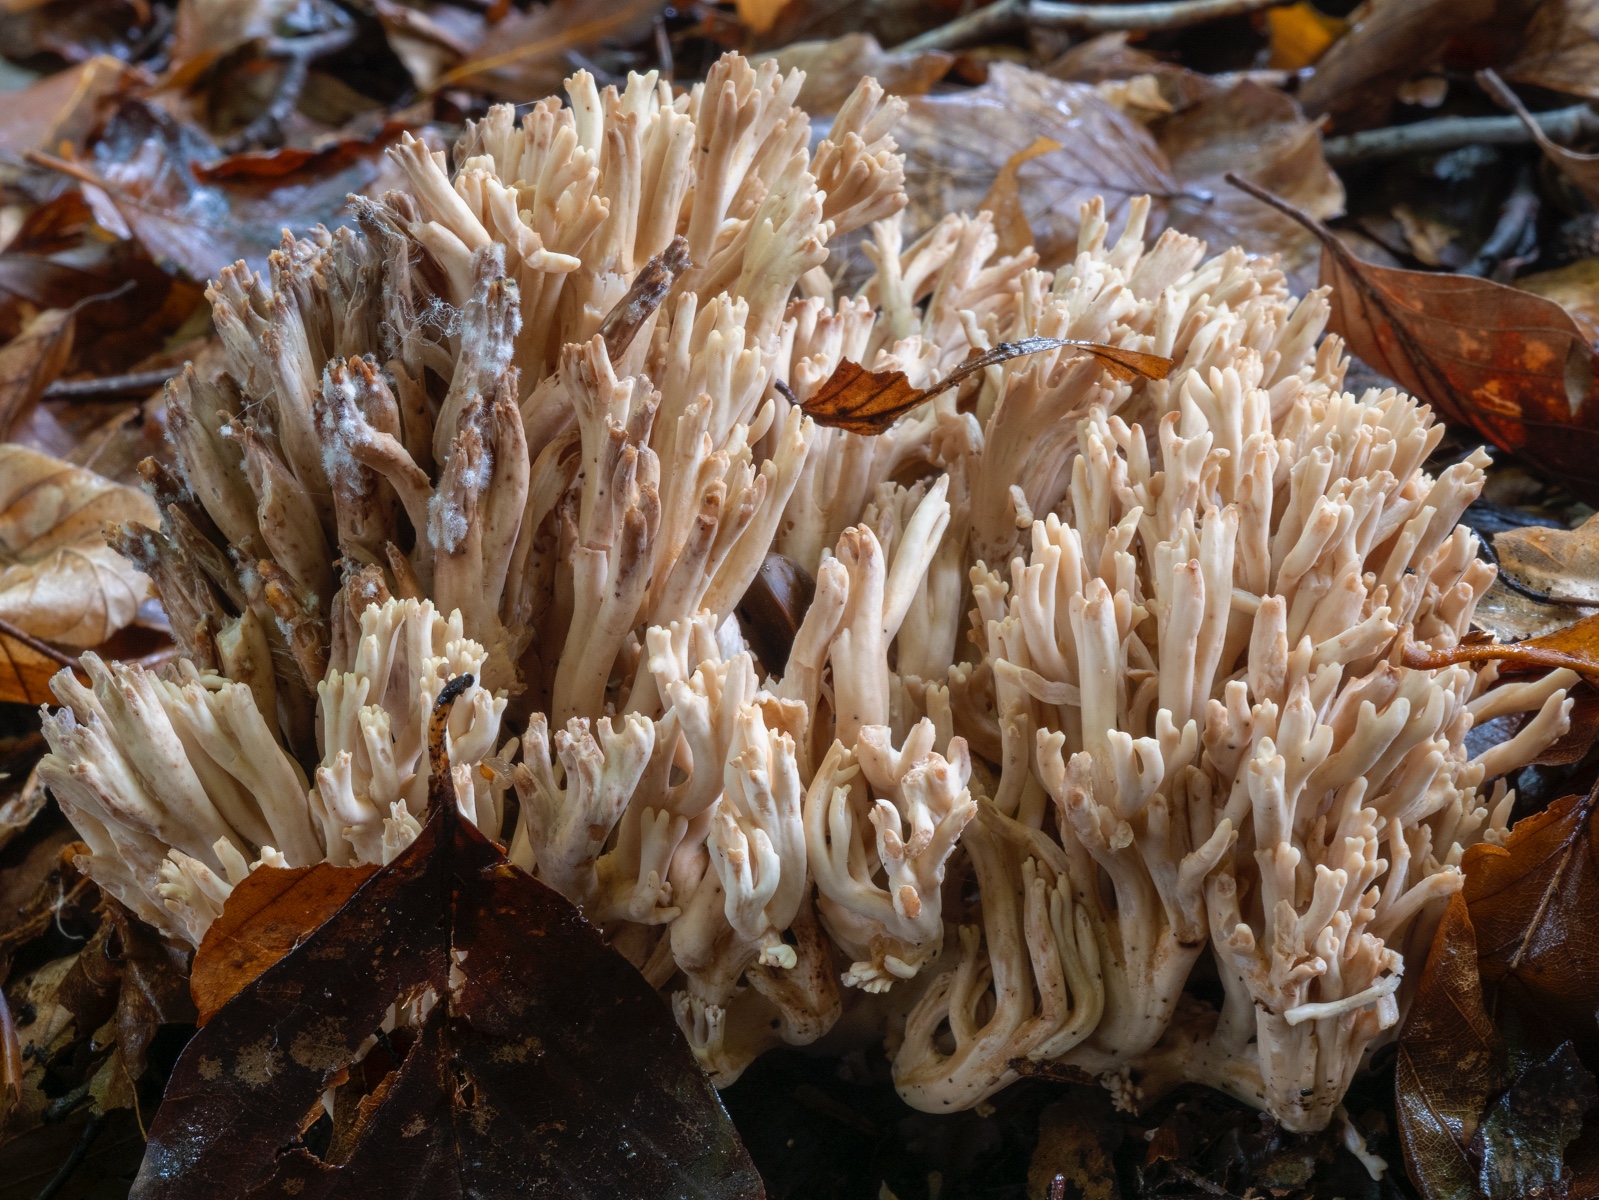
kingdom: Fungi
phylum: Basidiomycota
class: Agaricomycetes
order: Gomphales
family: Gomphaceae
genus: Ramaria
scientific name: Ramaria brienzensis
